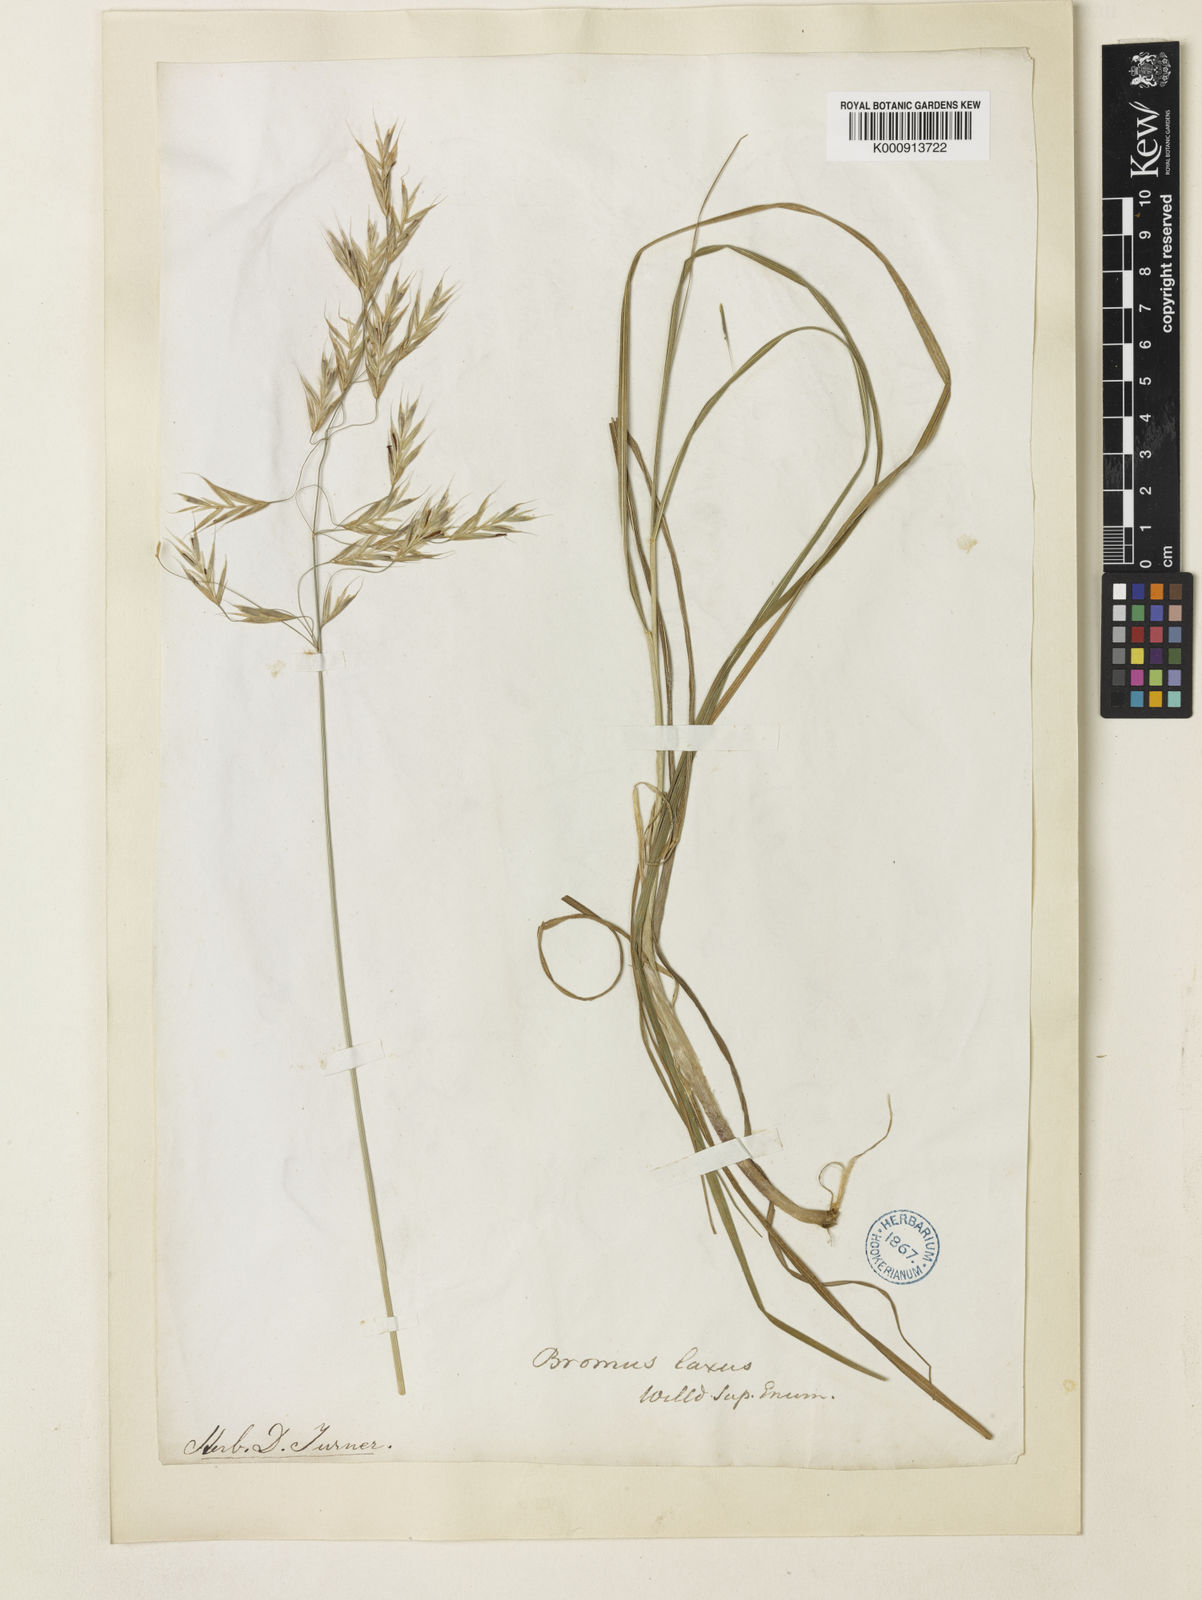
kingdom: Plantae
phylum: Tracheophyta
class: Liliopsida
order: Poales
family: Poaceae
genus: Bromus
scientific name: Bromus
